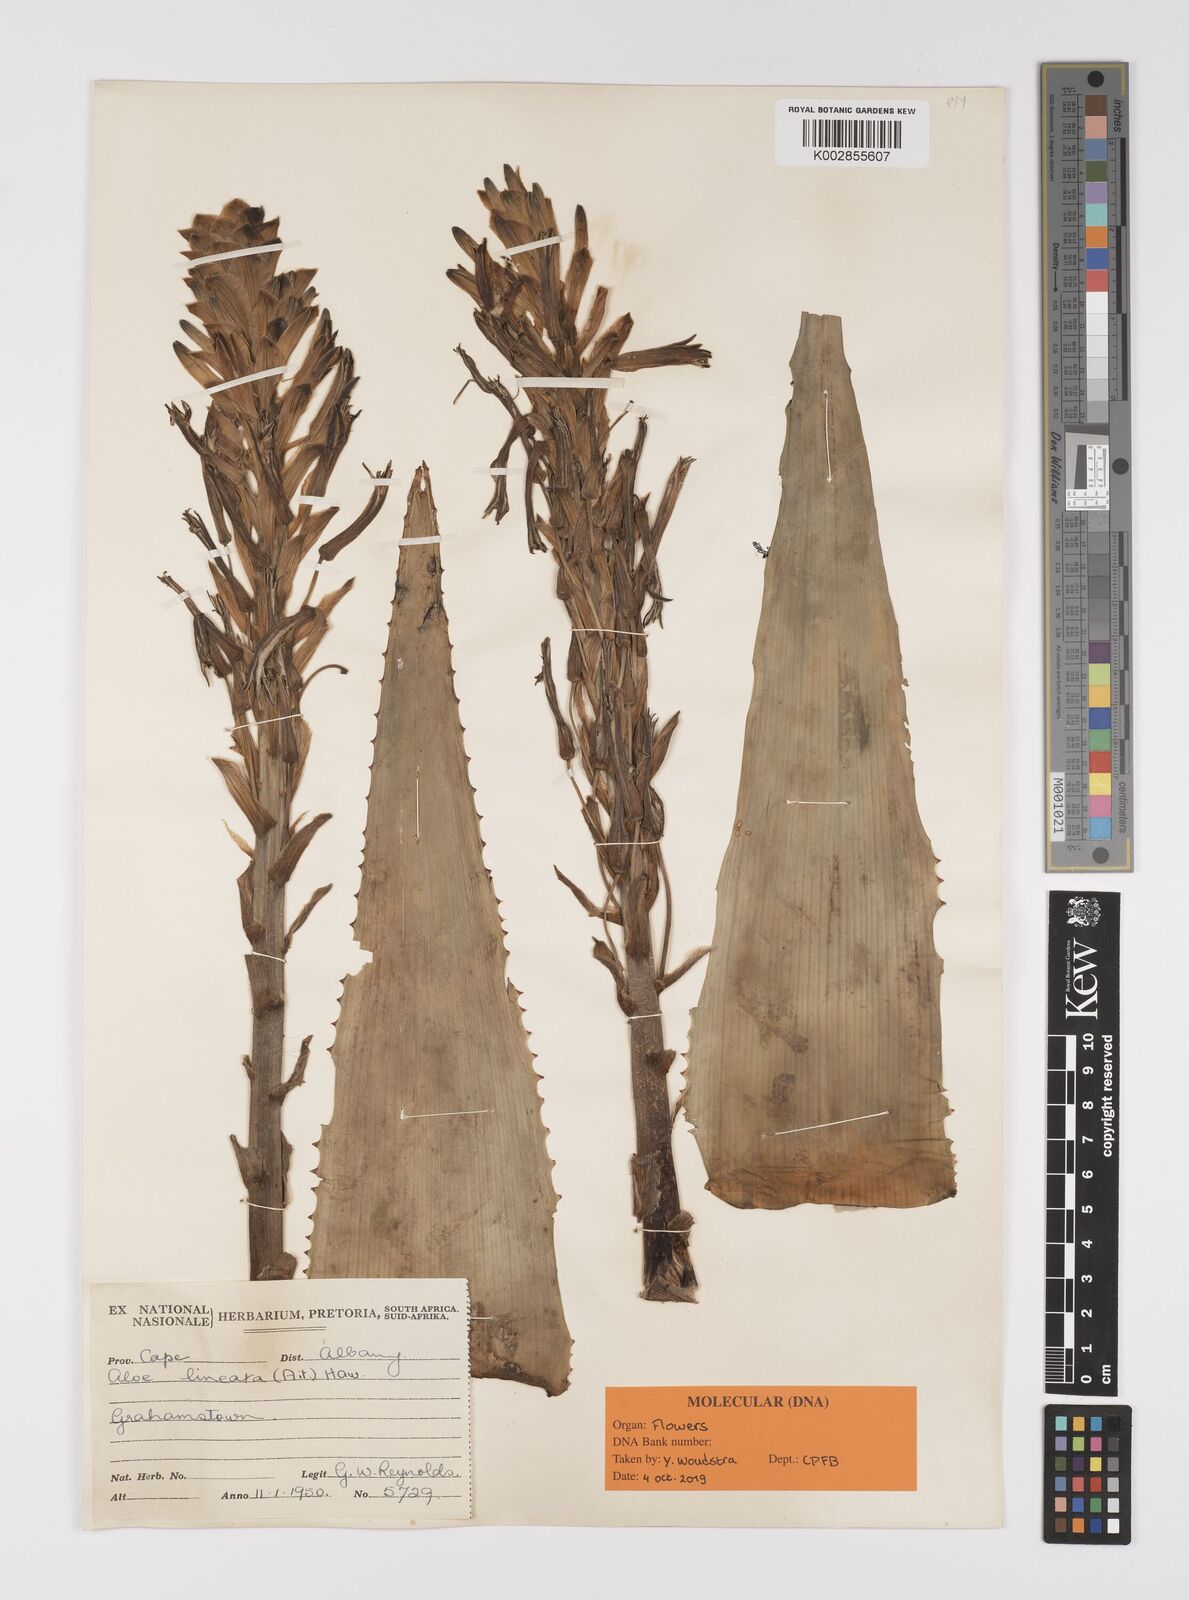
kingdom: Plantae
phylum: Tracheophyta
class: Liliopsida
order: Asparagales
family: Asphodelaceae
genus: Aloe
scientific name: Aloe lineata
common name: Lined red-spined aloe
